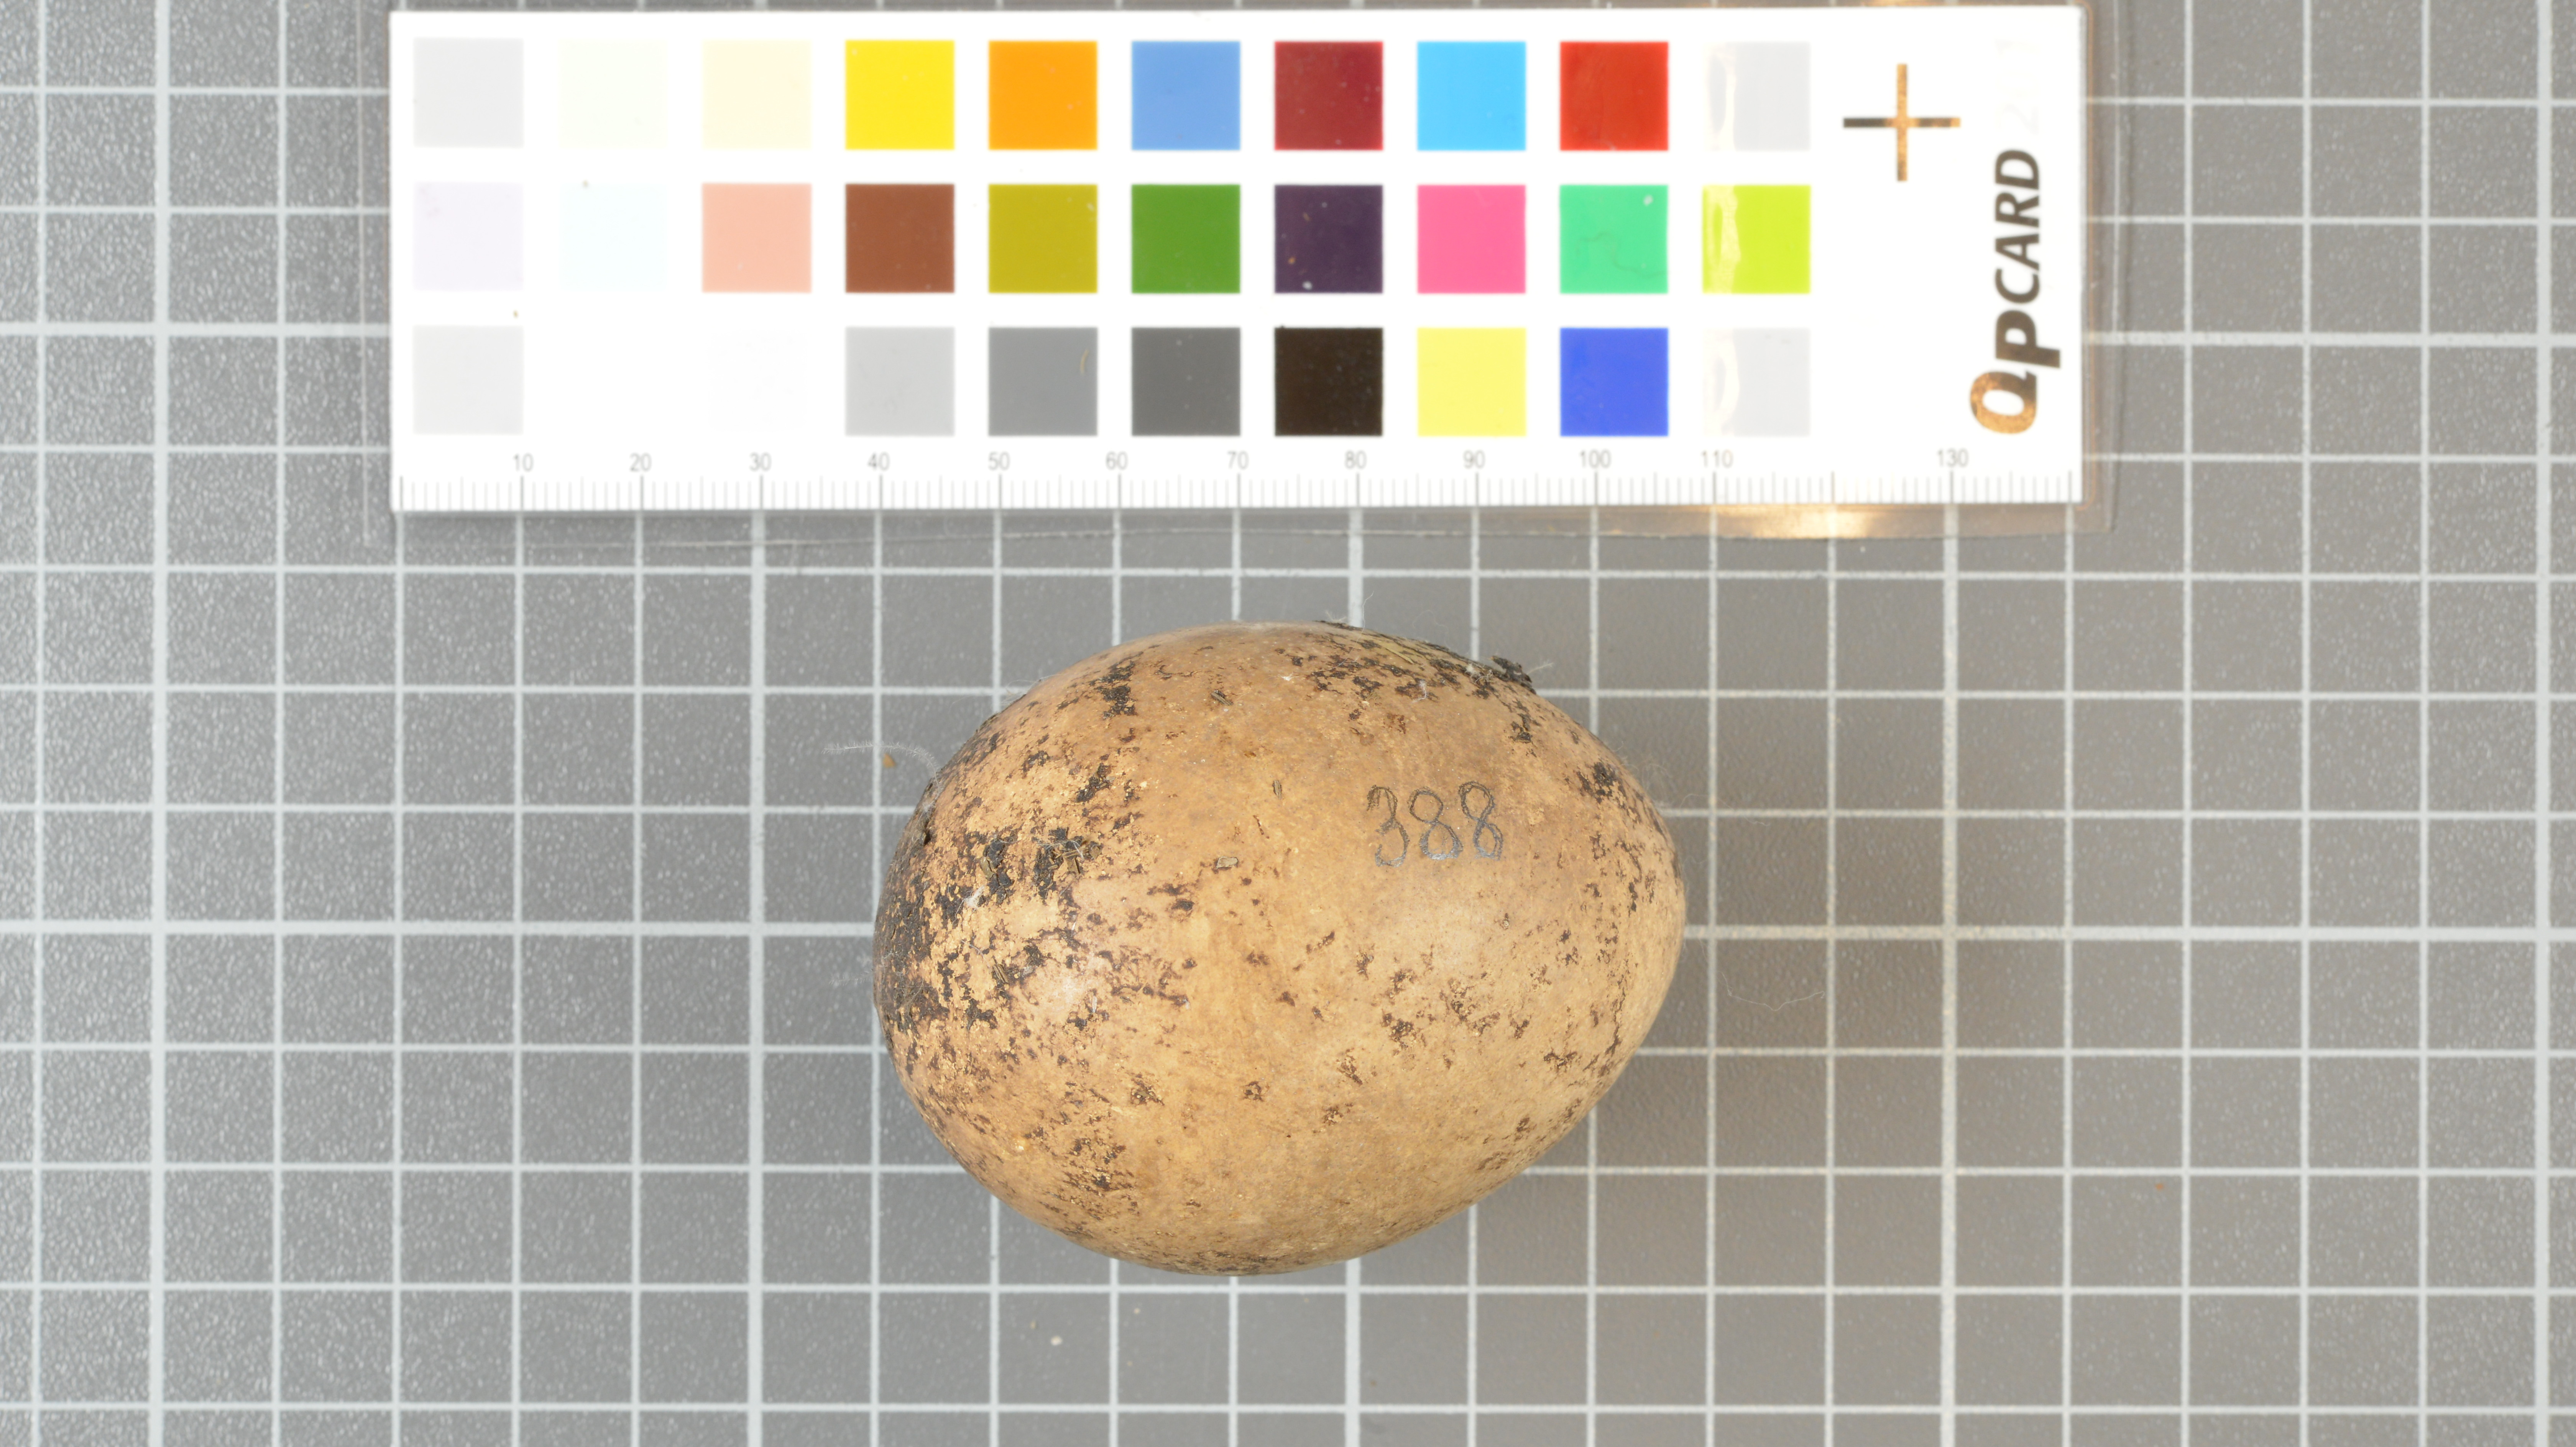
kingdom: Animalia
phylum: Chordata
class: Aves
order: Sphenisciformes
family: Spheniscidae
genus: Eudyptes
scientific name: Eudyptes moseleyi
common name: Northern rockhopper penguin
